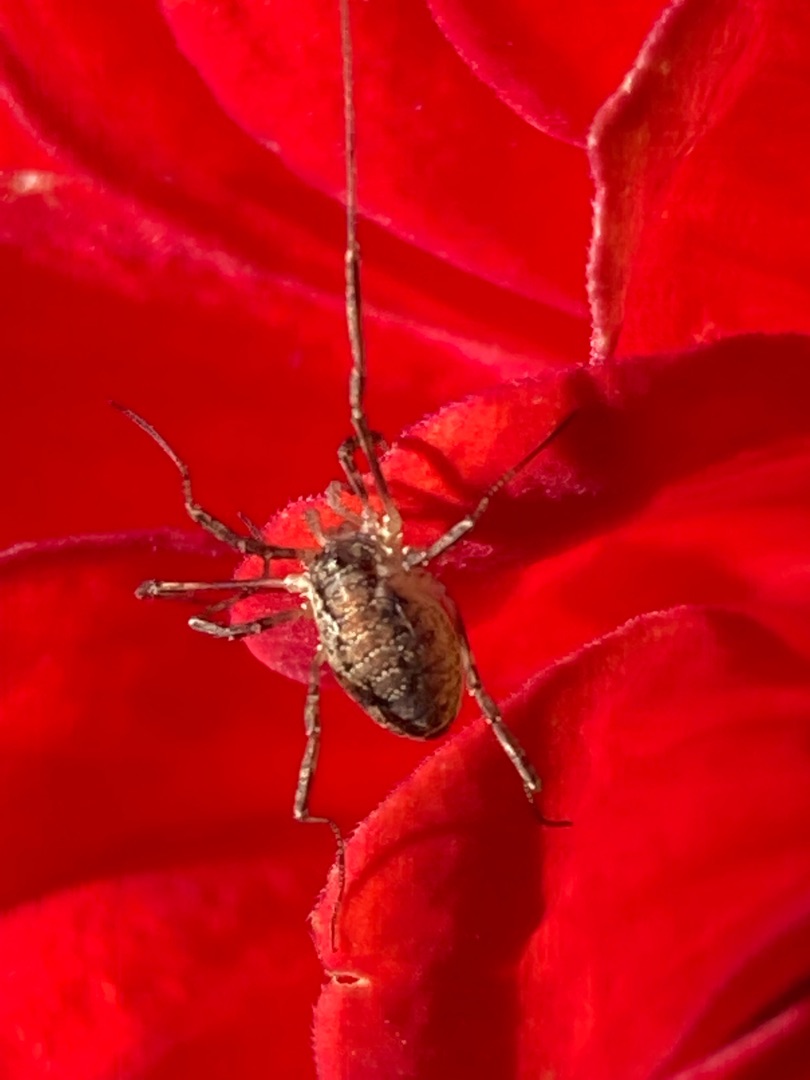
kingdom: Animalia
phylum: Arthropoda
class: Arachnida
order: Opiliones
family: Phalangiidae
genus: Paroligolophus
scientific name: Paroligolophus agrestis
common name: Hedemejer
